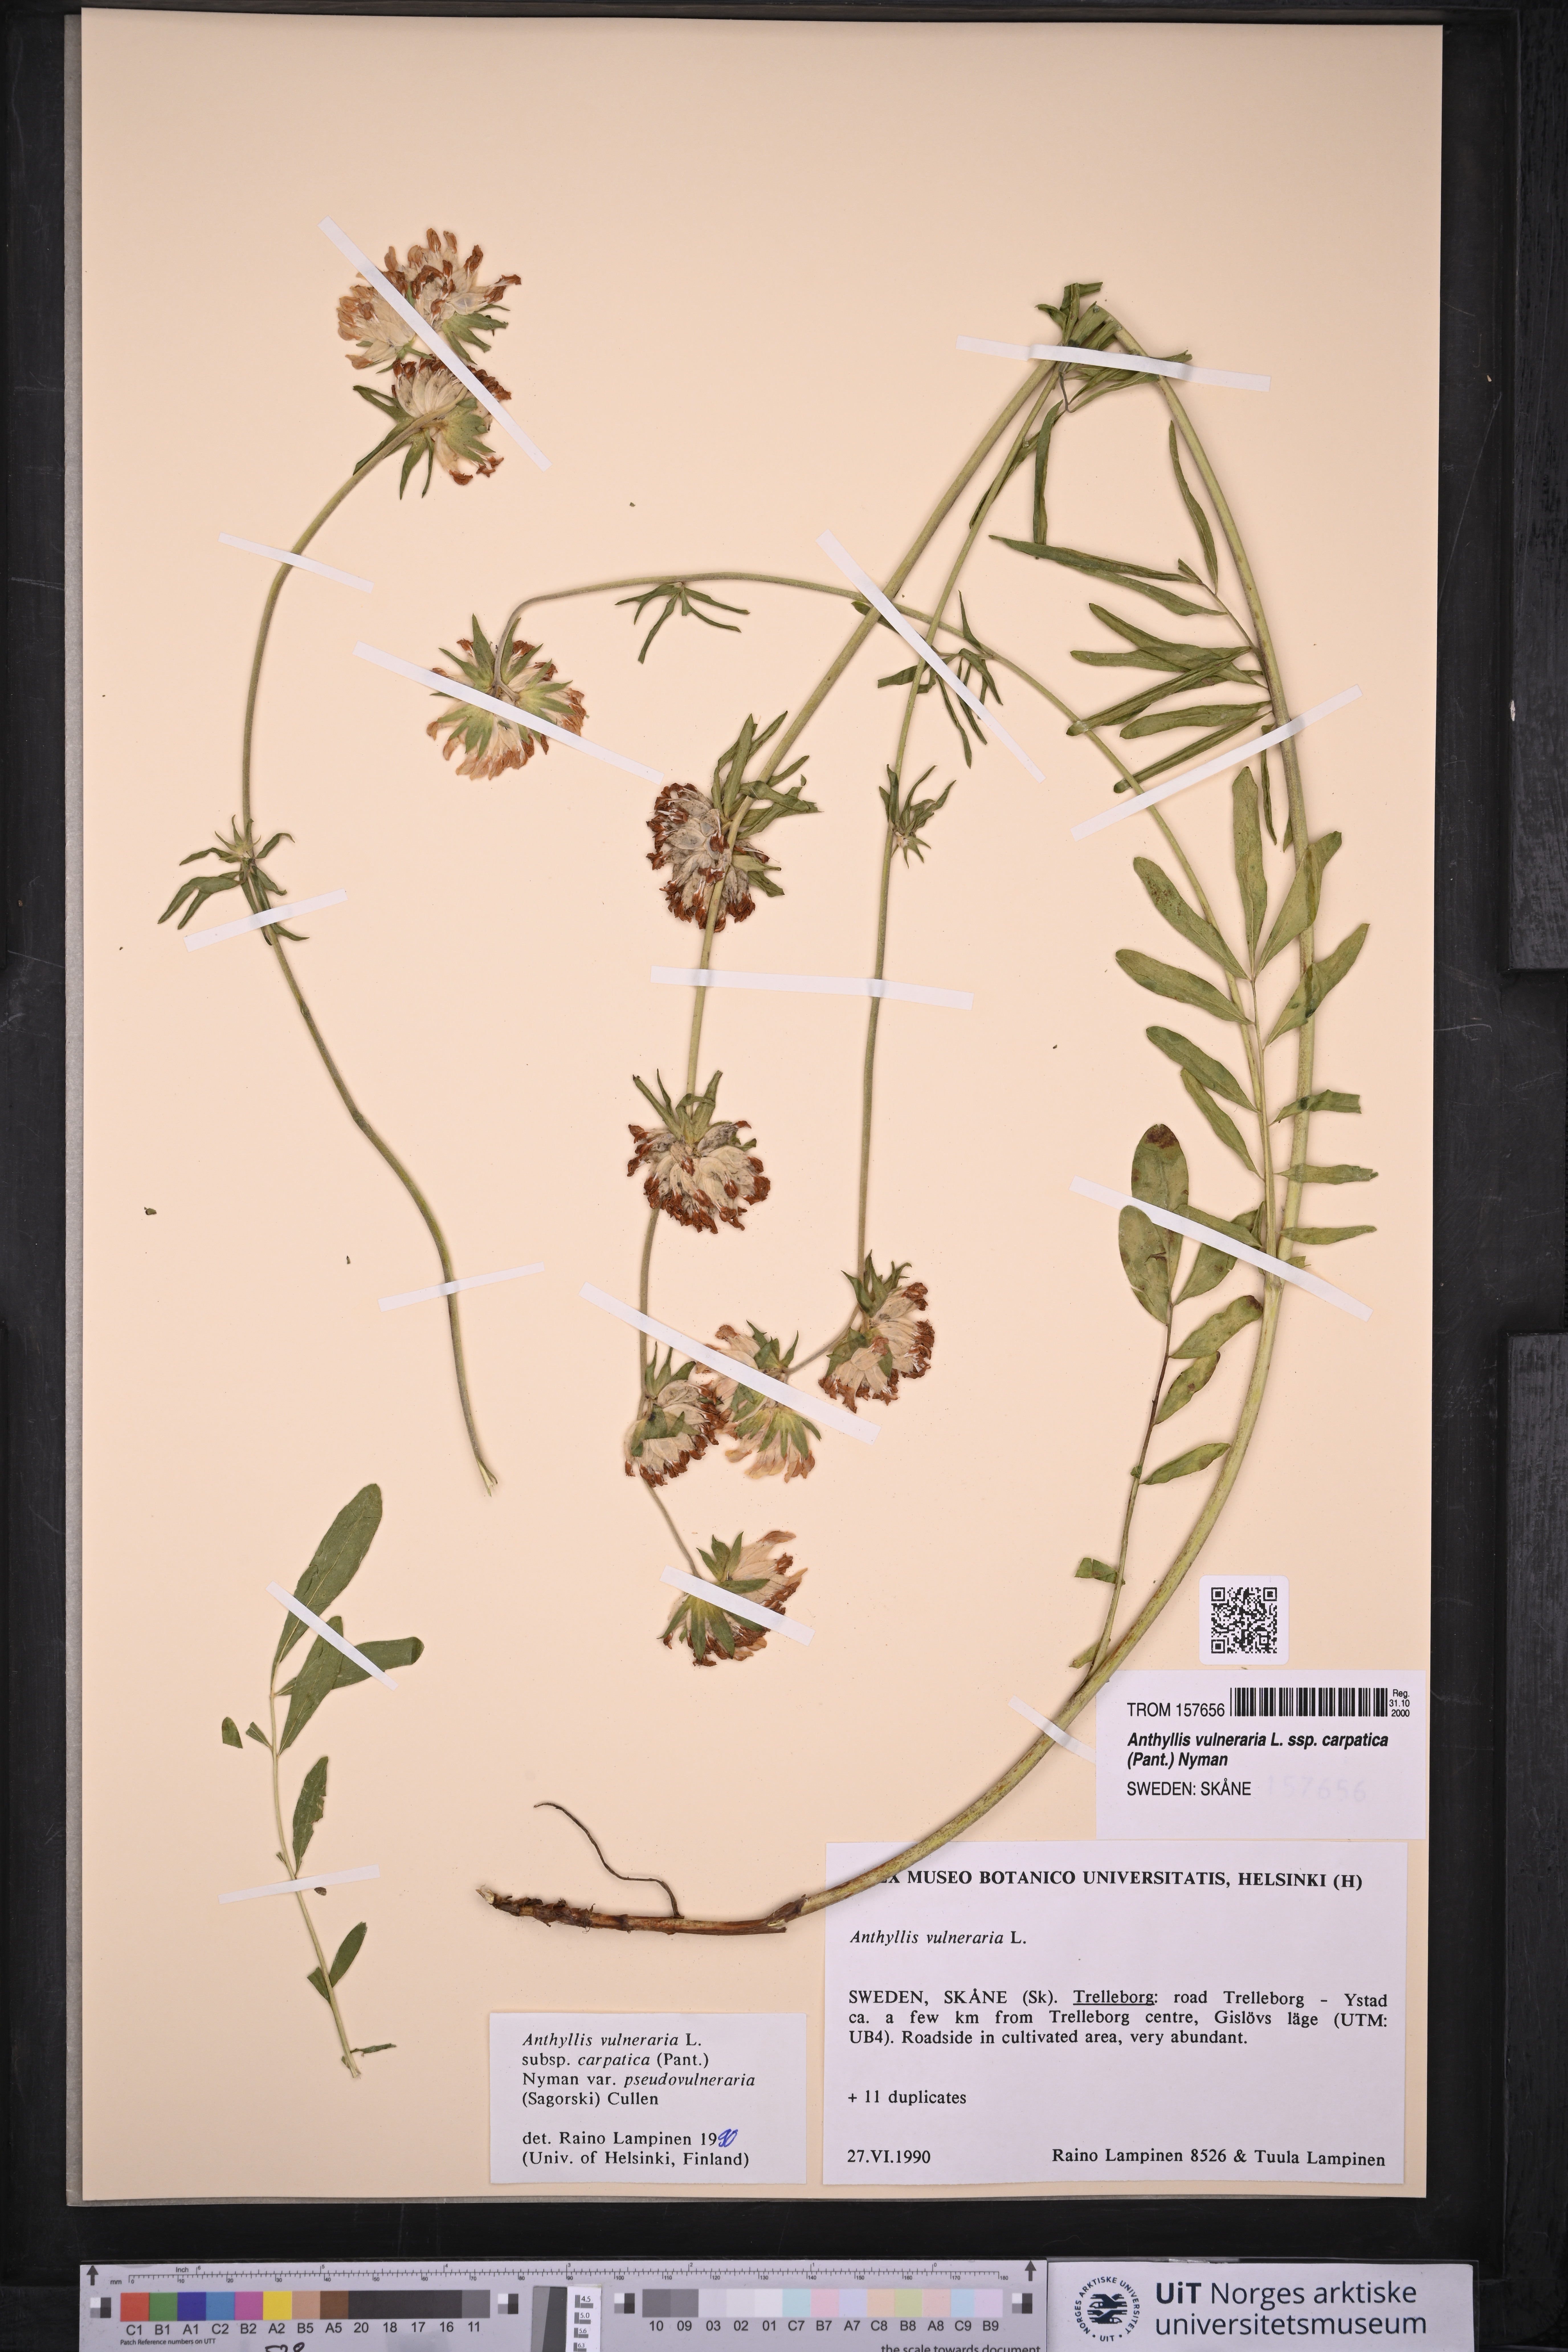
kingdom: Plantae
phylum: Tracheophyta
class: Magnoliopsida
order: Fabales
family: Fabaceae
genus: Anthyllis
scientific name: Anthyllis vulneraria
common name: Kidney vetch
